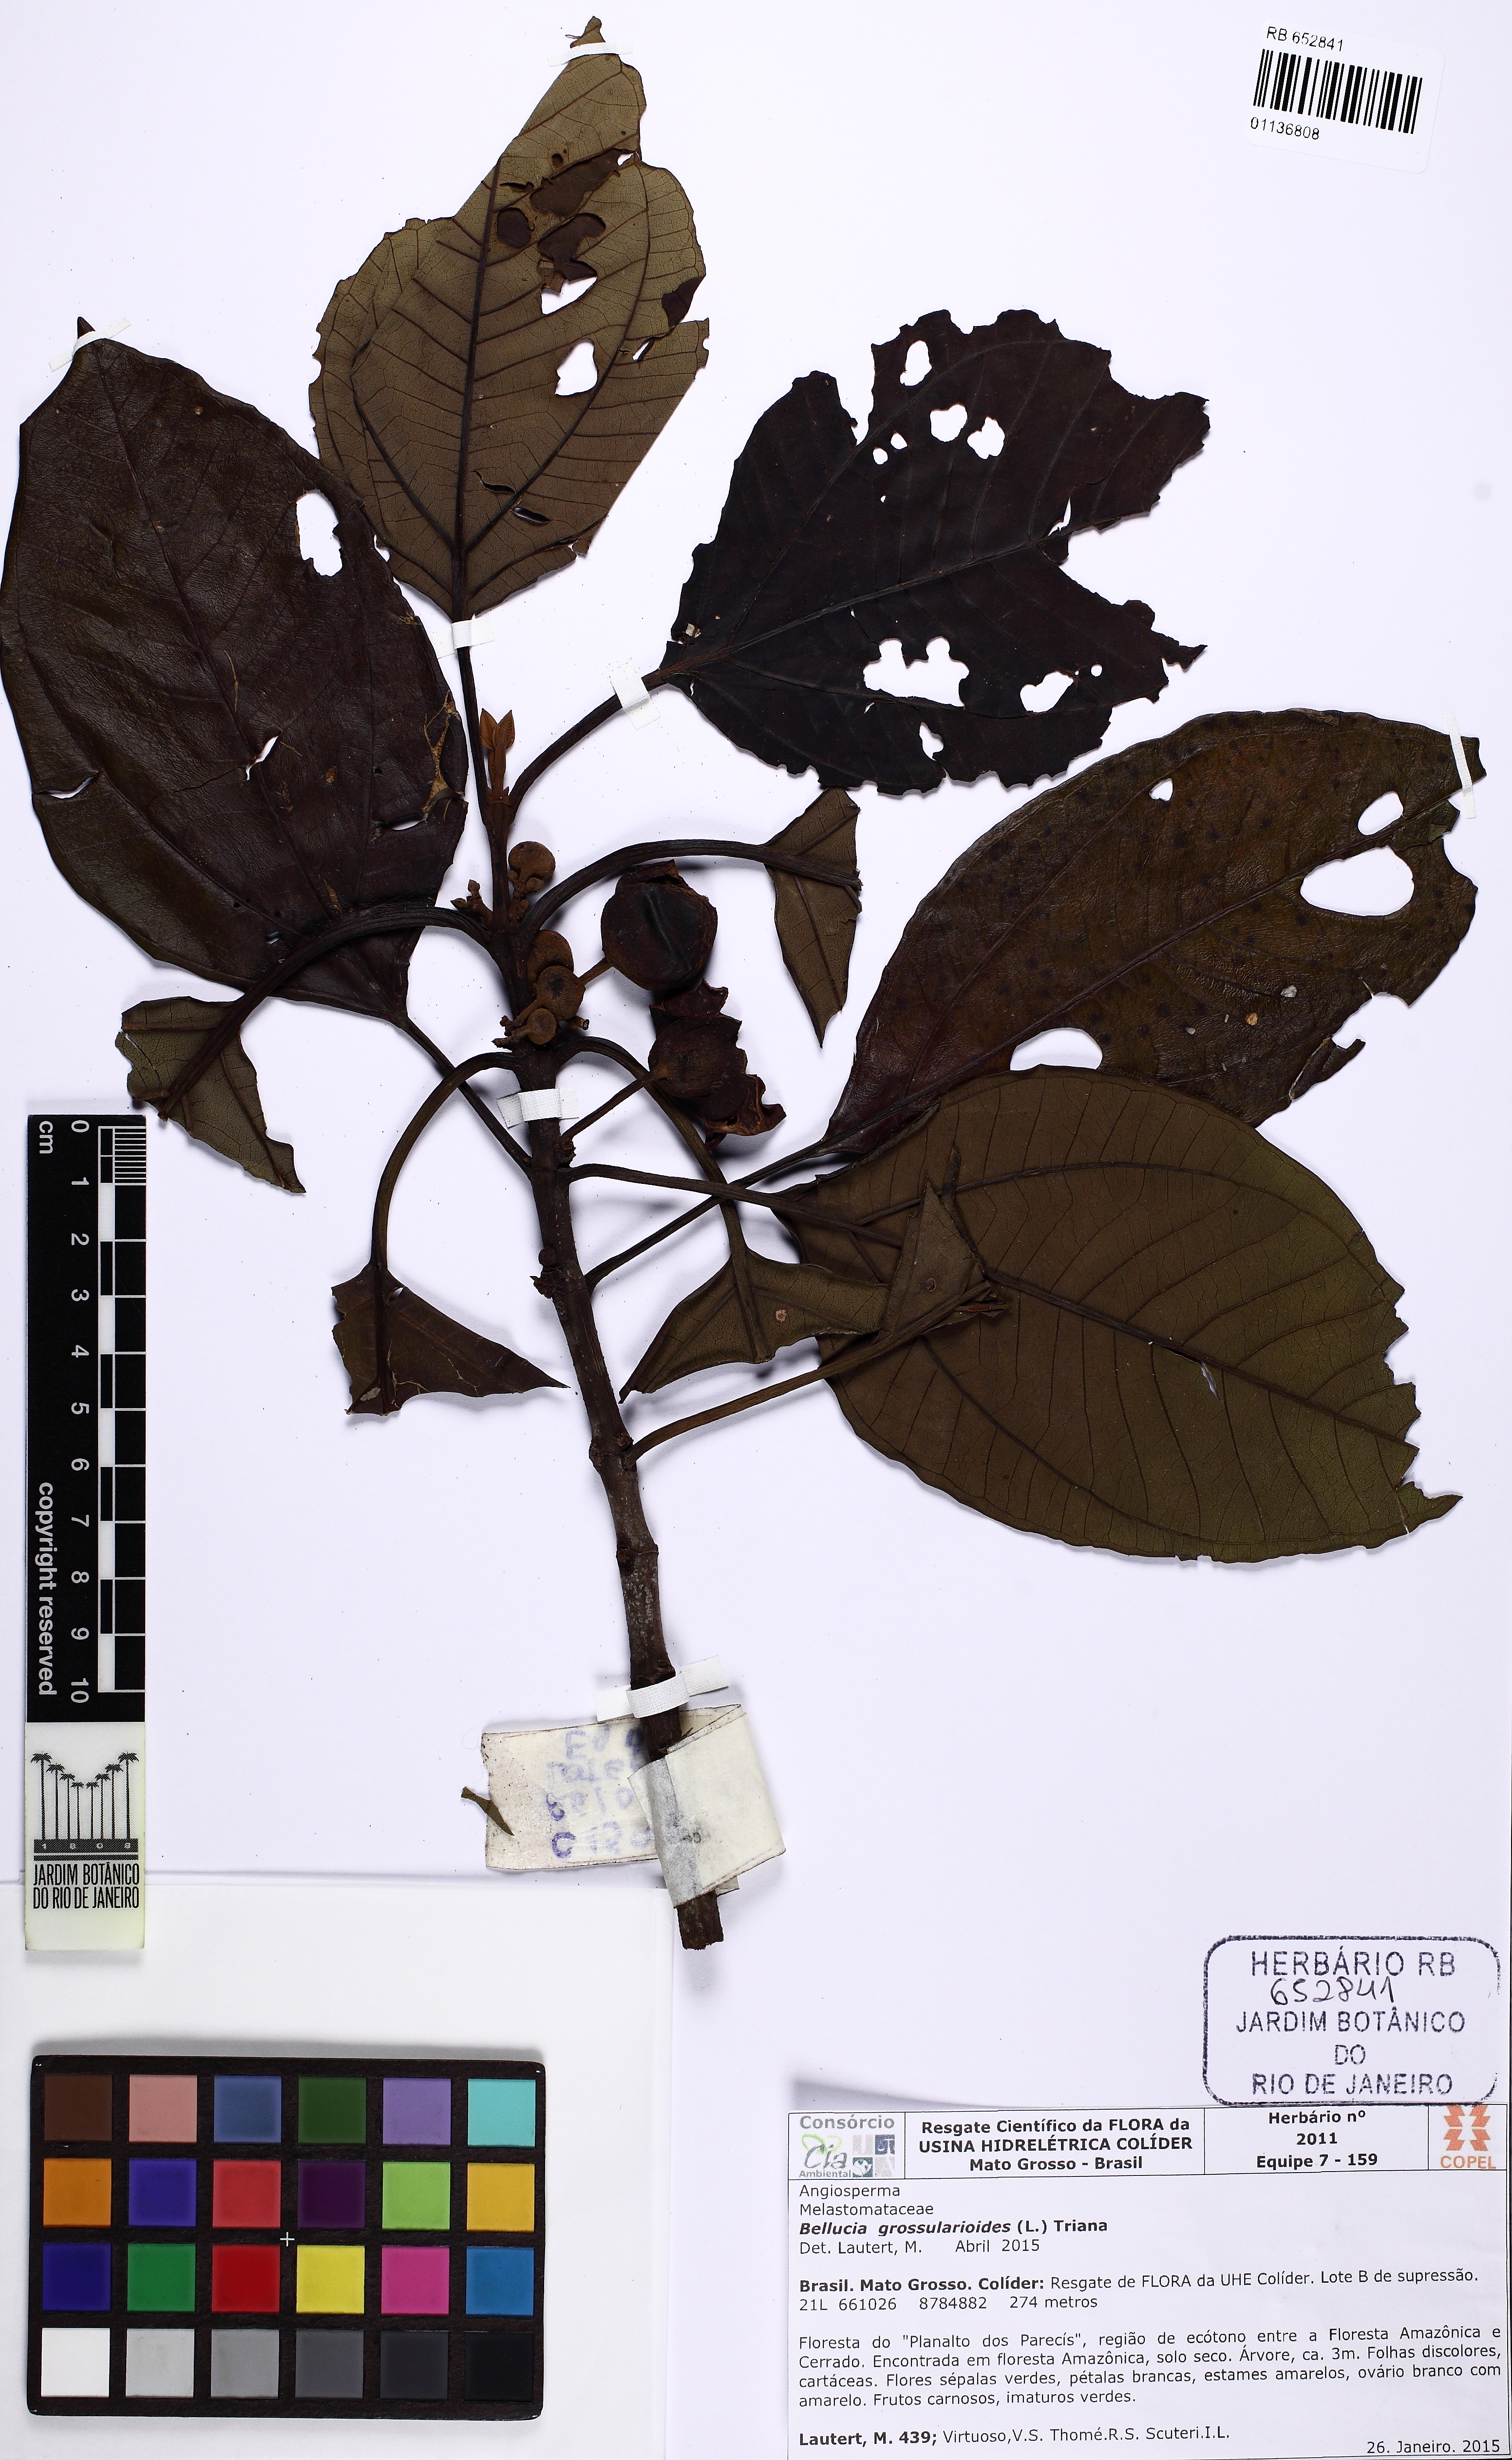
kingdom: Plantae
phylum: Tracheophyta
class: Magnoliopsida
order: Myrtales
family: Melastomataceae
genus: Bellucia
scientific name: Bellucia grossularioides
